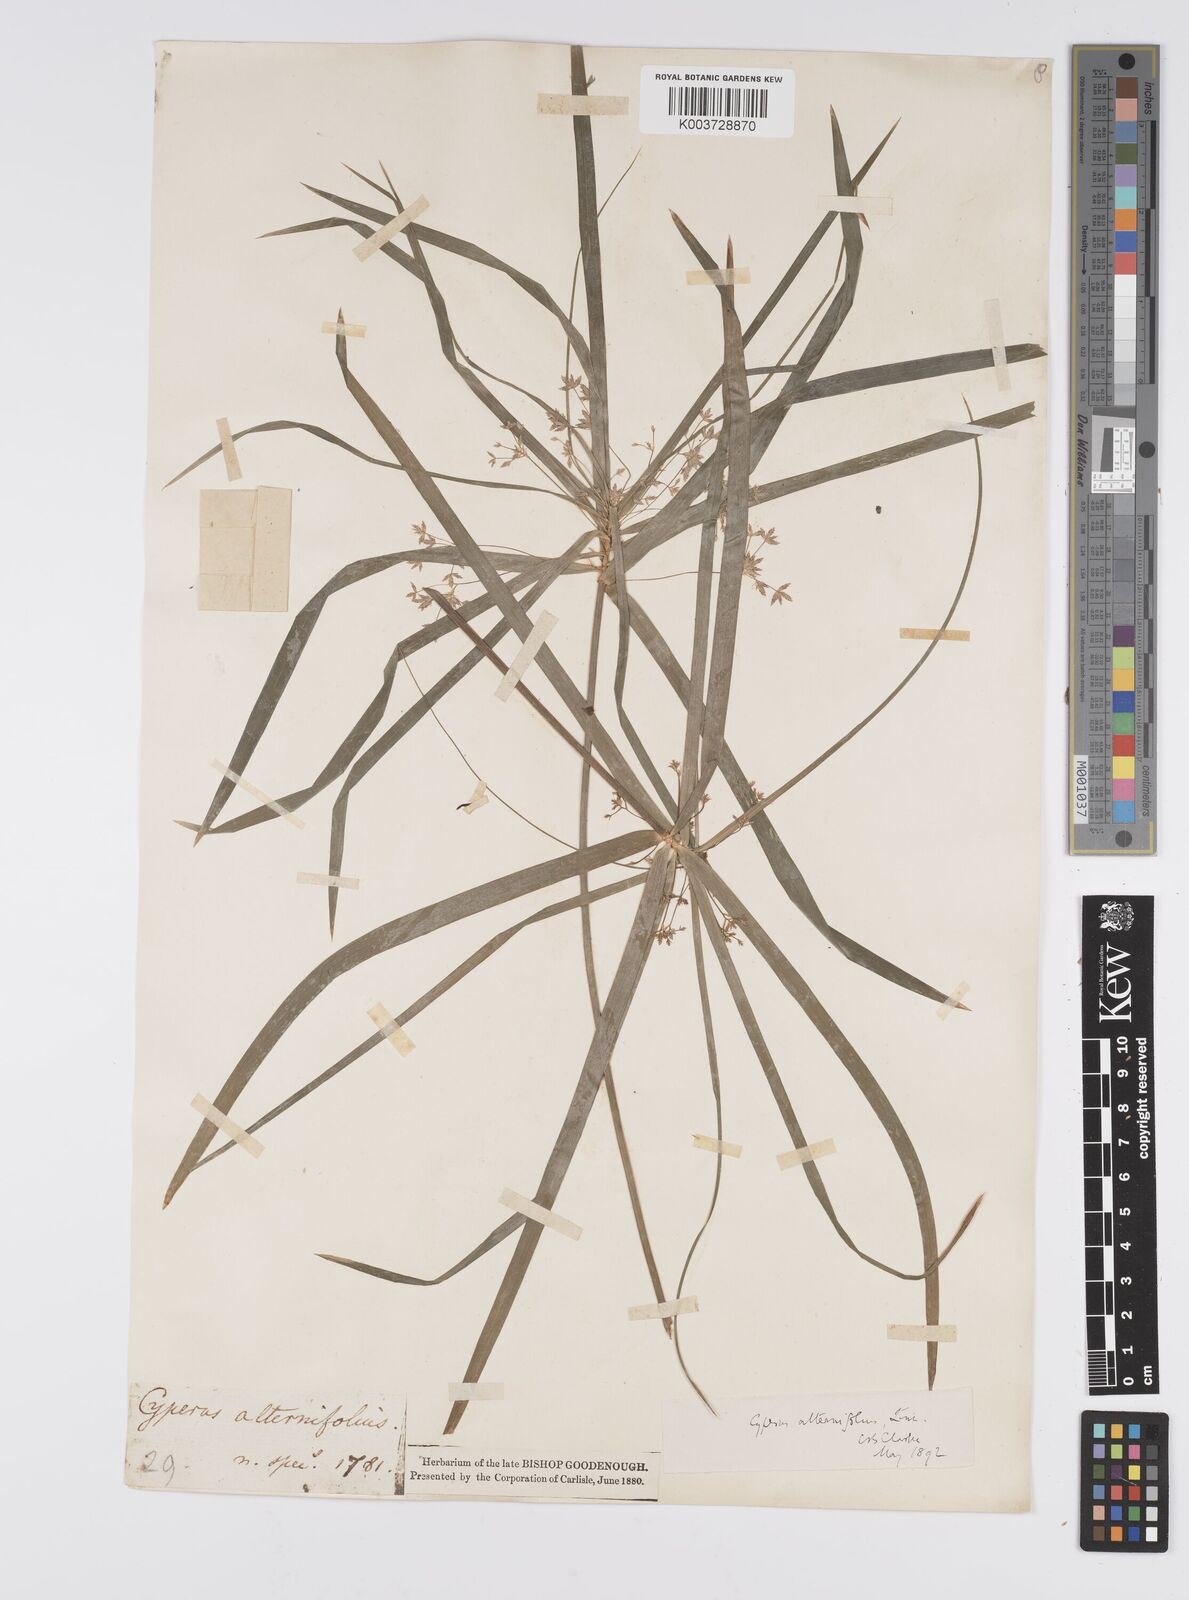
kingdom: Plantae
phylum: Tracheophyta
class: Liliopsida
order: Poales
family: Cyperaceae
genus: Cyperus
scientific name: Cyperus alternifolius
